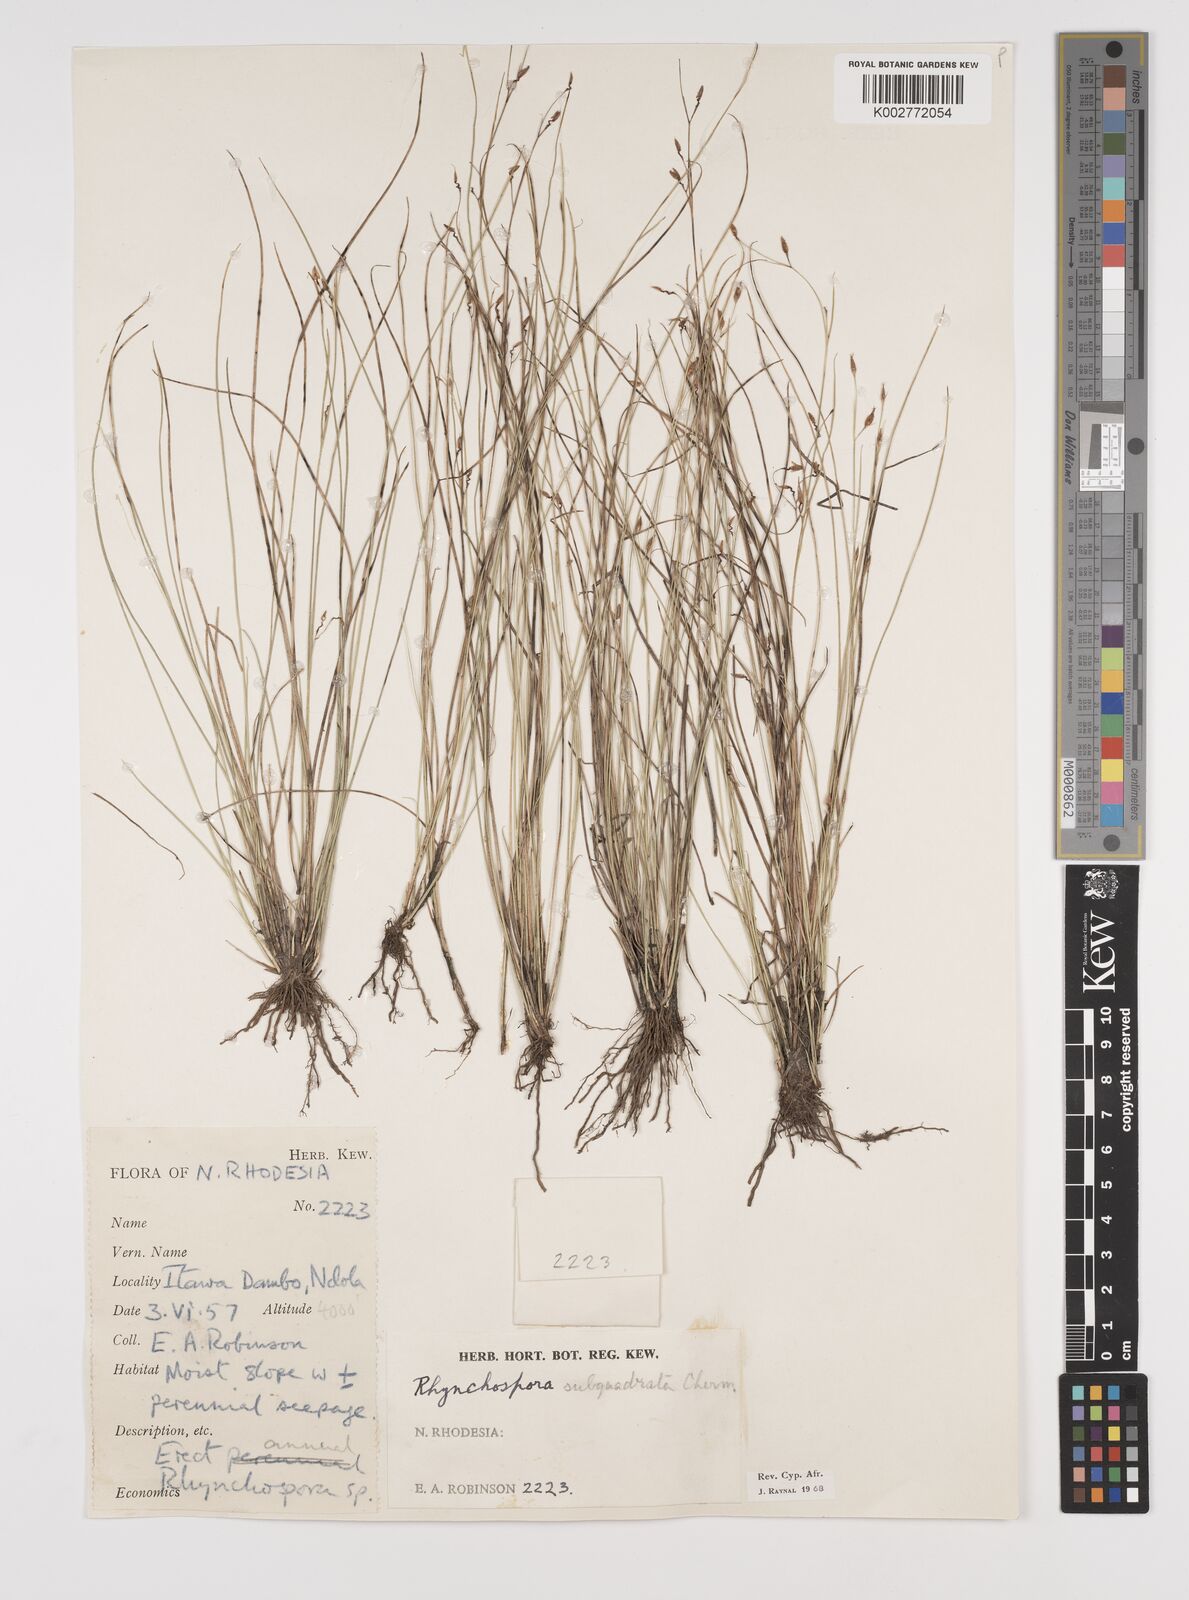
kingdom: Plantae
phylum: Tracheophyta
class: Liliopsida
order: Poales
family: Cyperaceae
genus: Rhynchospora
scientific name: Rhynchospora gracillima
